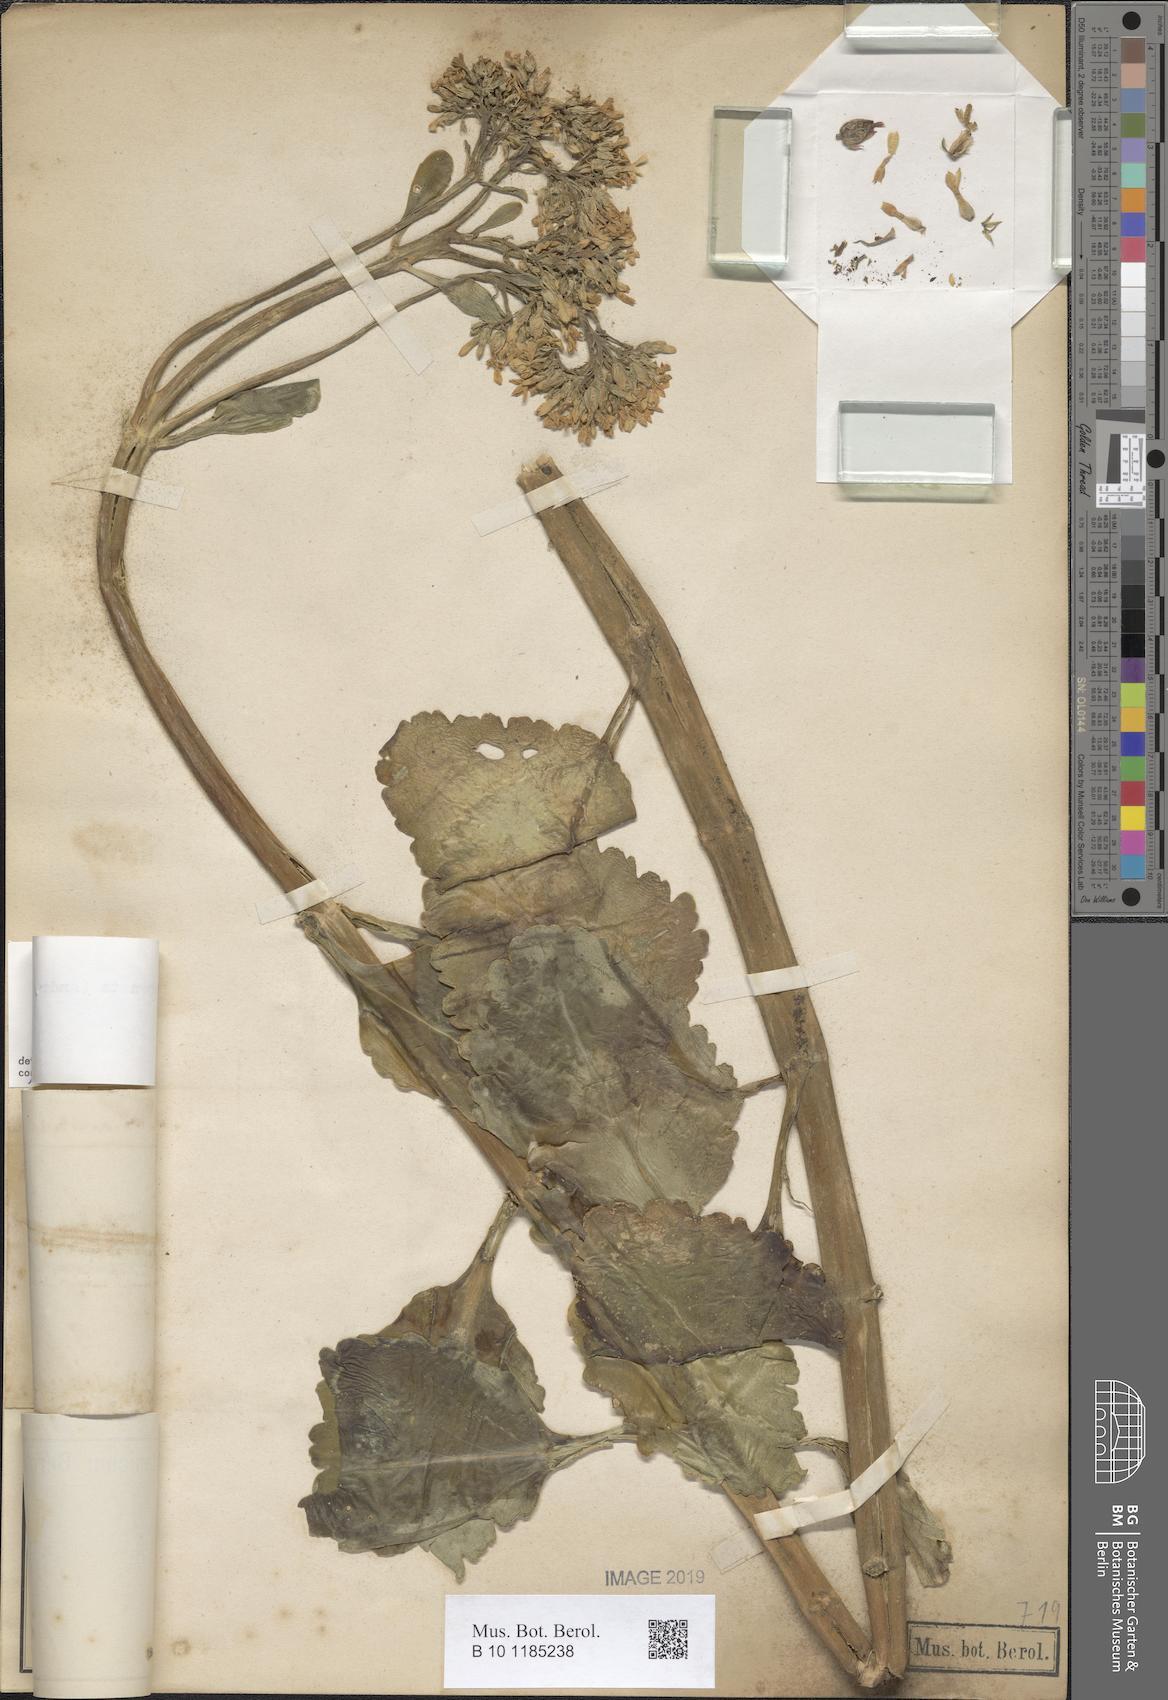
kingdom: Plantae
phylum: Tracheophyta
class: Magnoliopsida
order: Saxifragales
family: Crassulaceae
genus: Kalanchoe
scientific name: Kalanchoe crenata
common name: Neverdie
